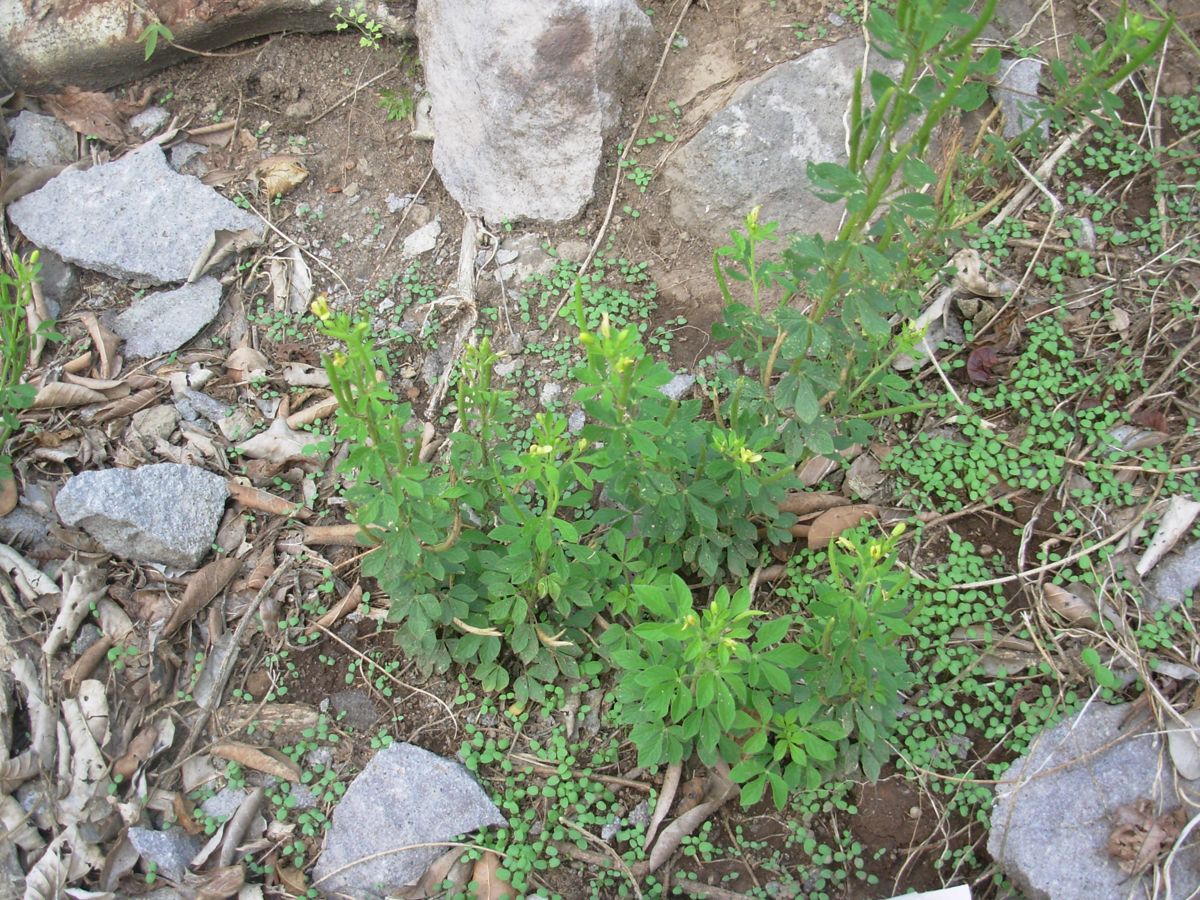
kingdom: Plantae
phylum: Tracheophyta
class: Magnoliopsida
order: Brassicales
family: Cleomaceae
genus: Arivela
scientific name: Arivela viscosa
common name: Asian spiderflower
